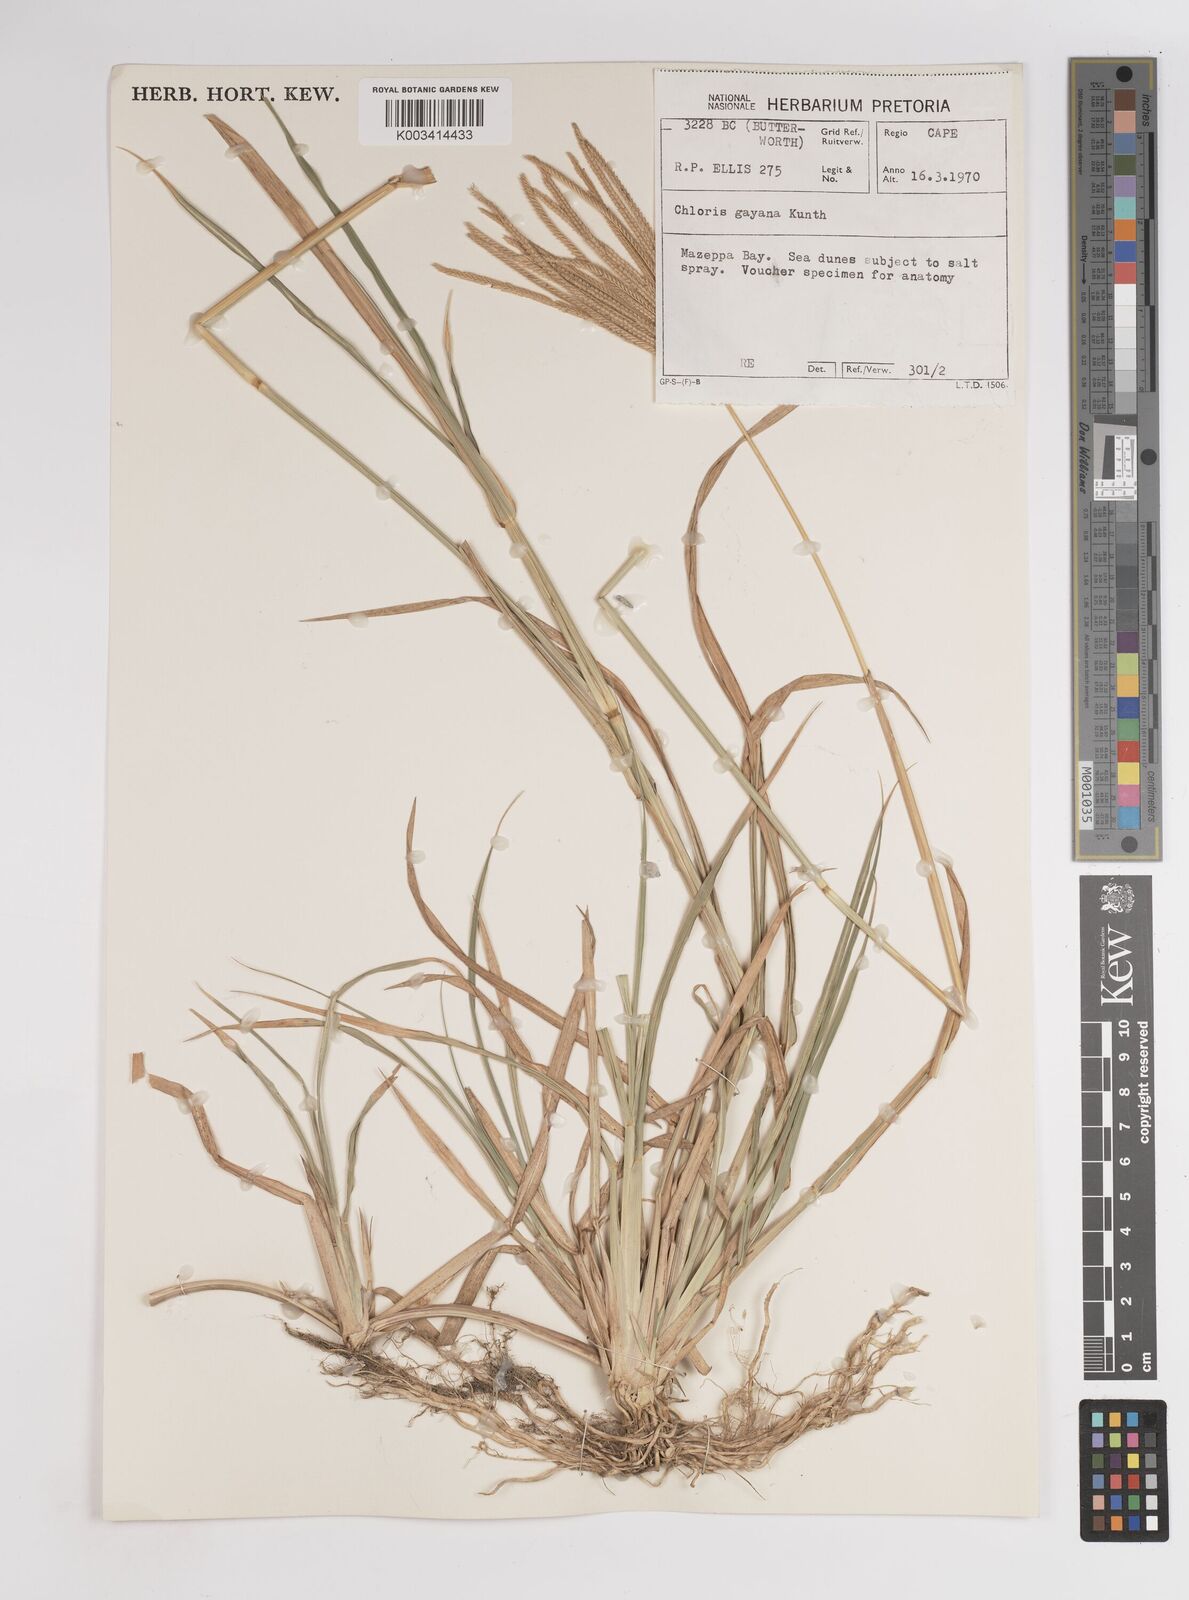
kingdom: Plantae
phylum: Tracheophyta
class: Liliopsida
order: Poales
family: Poaceae
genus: Chloris
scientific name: Chloris gayana
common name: Rhodes grass
